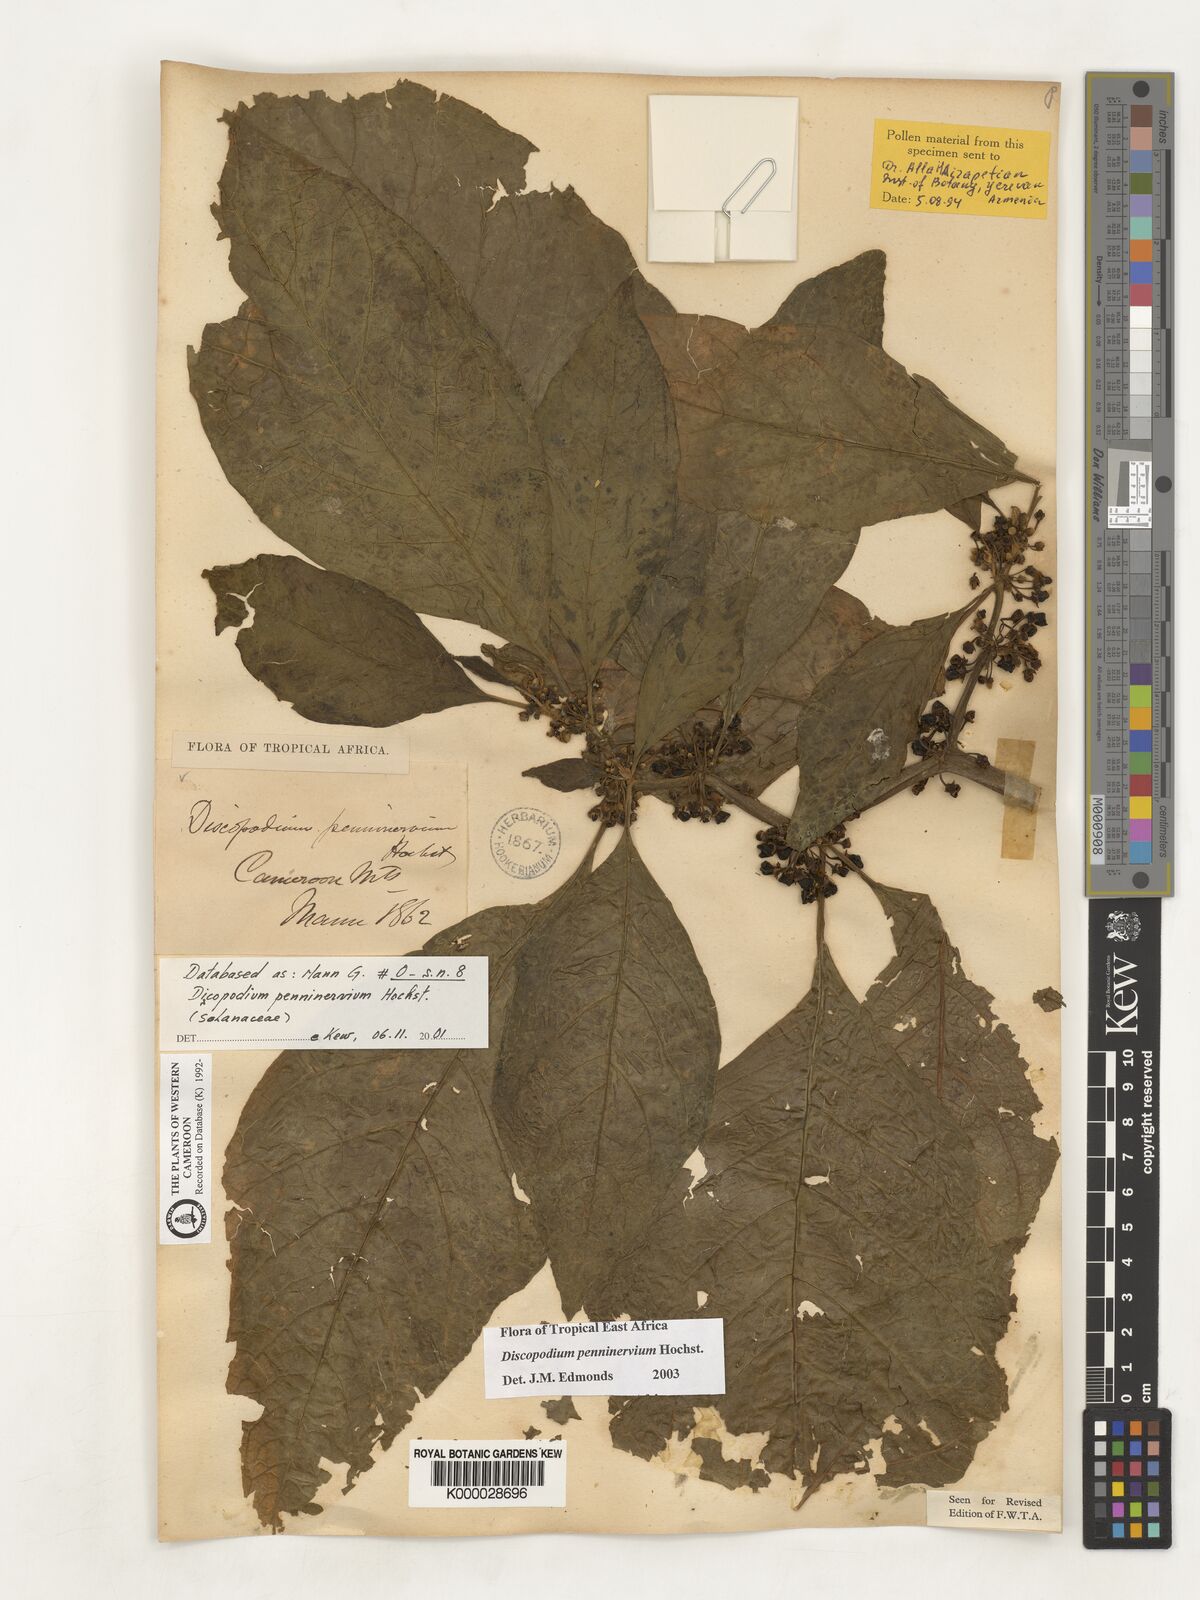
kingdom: Plantae
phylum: Tracheophyta
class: Magnoliopsida
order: Solanales
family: Solanaceae
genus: Discopodium
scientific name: Discopodium penninervium
